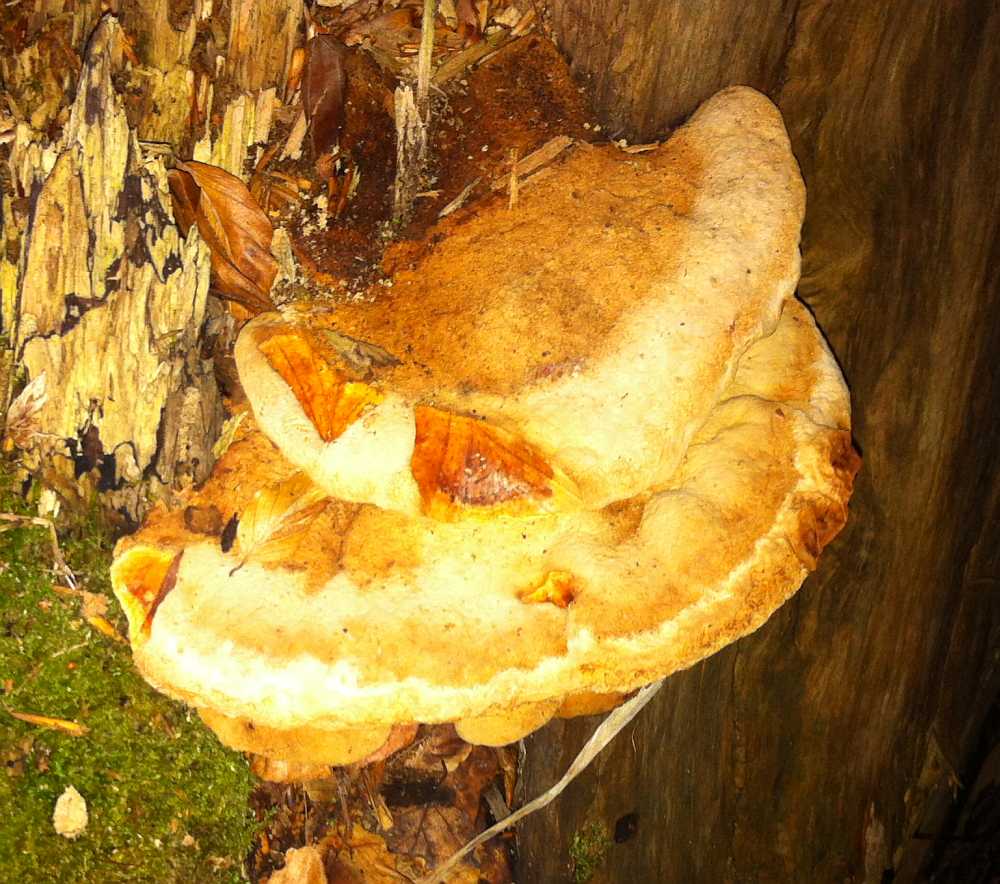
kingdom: Fungi
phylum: Basidiomycota
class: Agaricomycetes
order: Gloeophyllales
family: Gloeophyllaceae
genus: Gloeophyllum
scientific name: Gloeophyllum odoratum
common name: duftende korkhat
